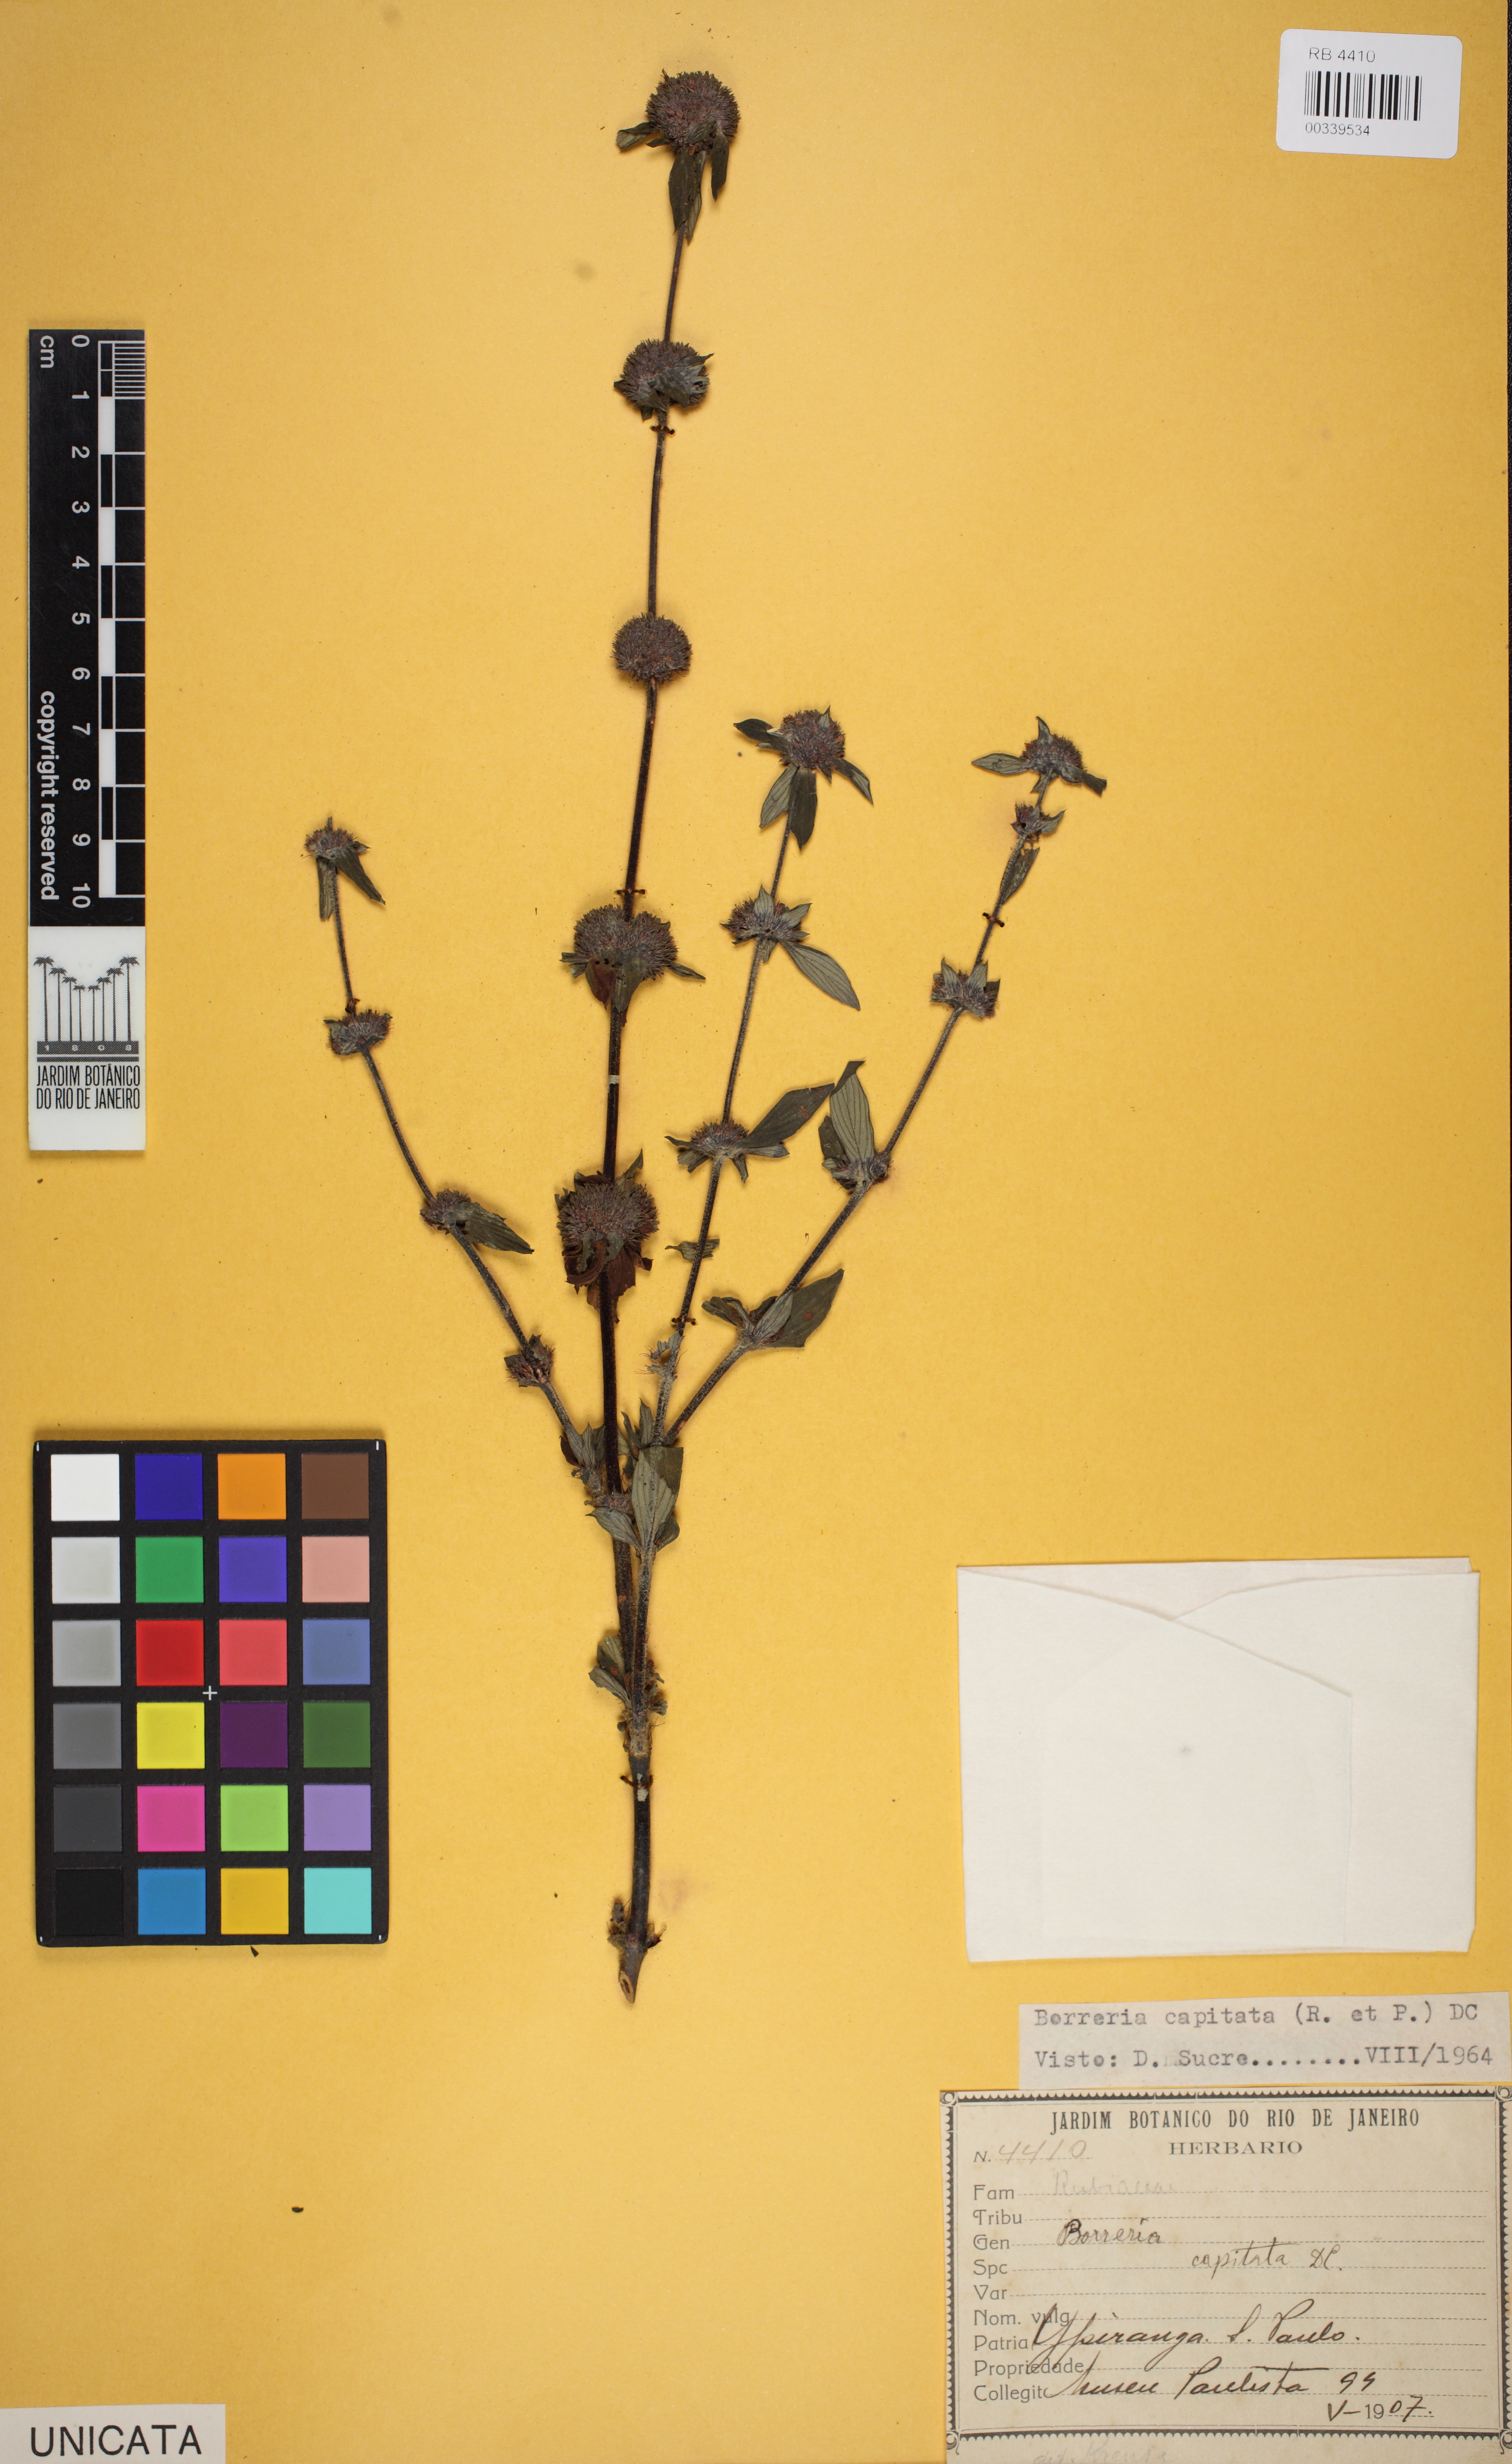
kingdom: Plantae
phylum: Tracheophyta
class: Magnoliopsida
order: Gentianales
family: Rubiaceae
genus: Spermacoce
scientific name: Spermacoce capitata
